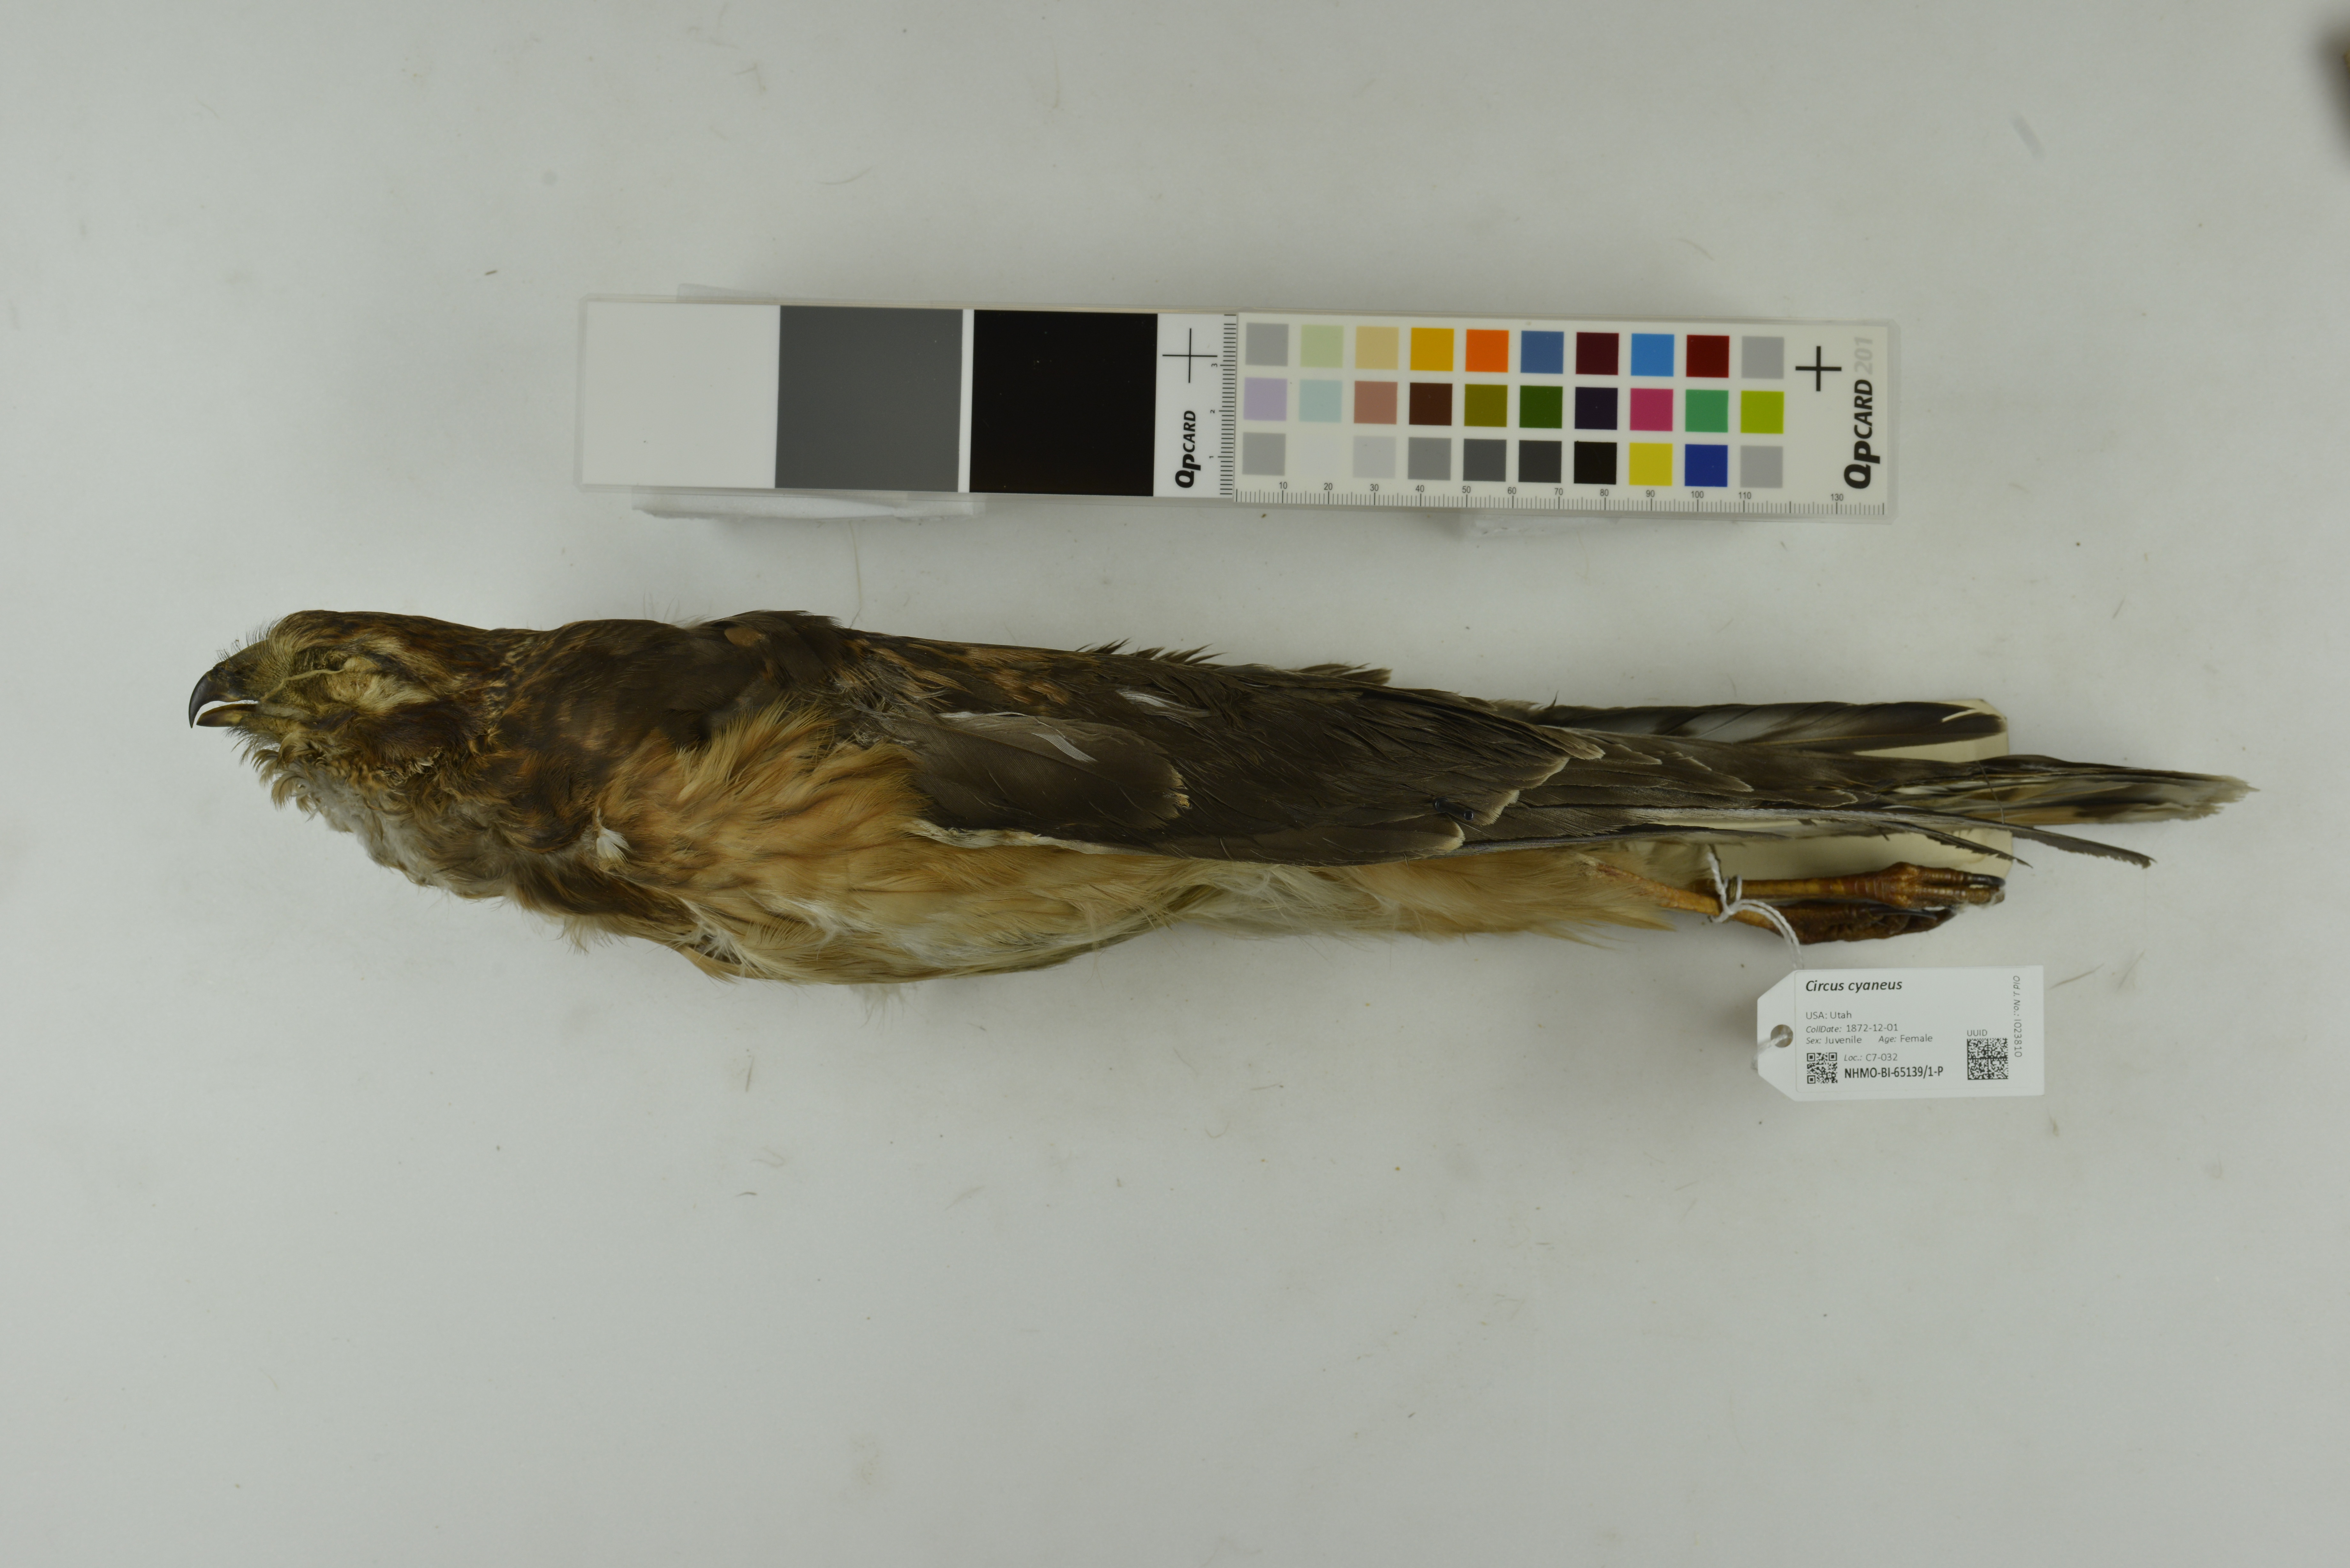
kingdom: Animalia
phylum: Chordata
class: Aves
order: Accipitriformes
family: Accipitridae
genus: Circus
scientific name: Circus cyaneus
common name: Hen harrier
